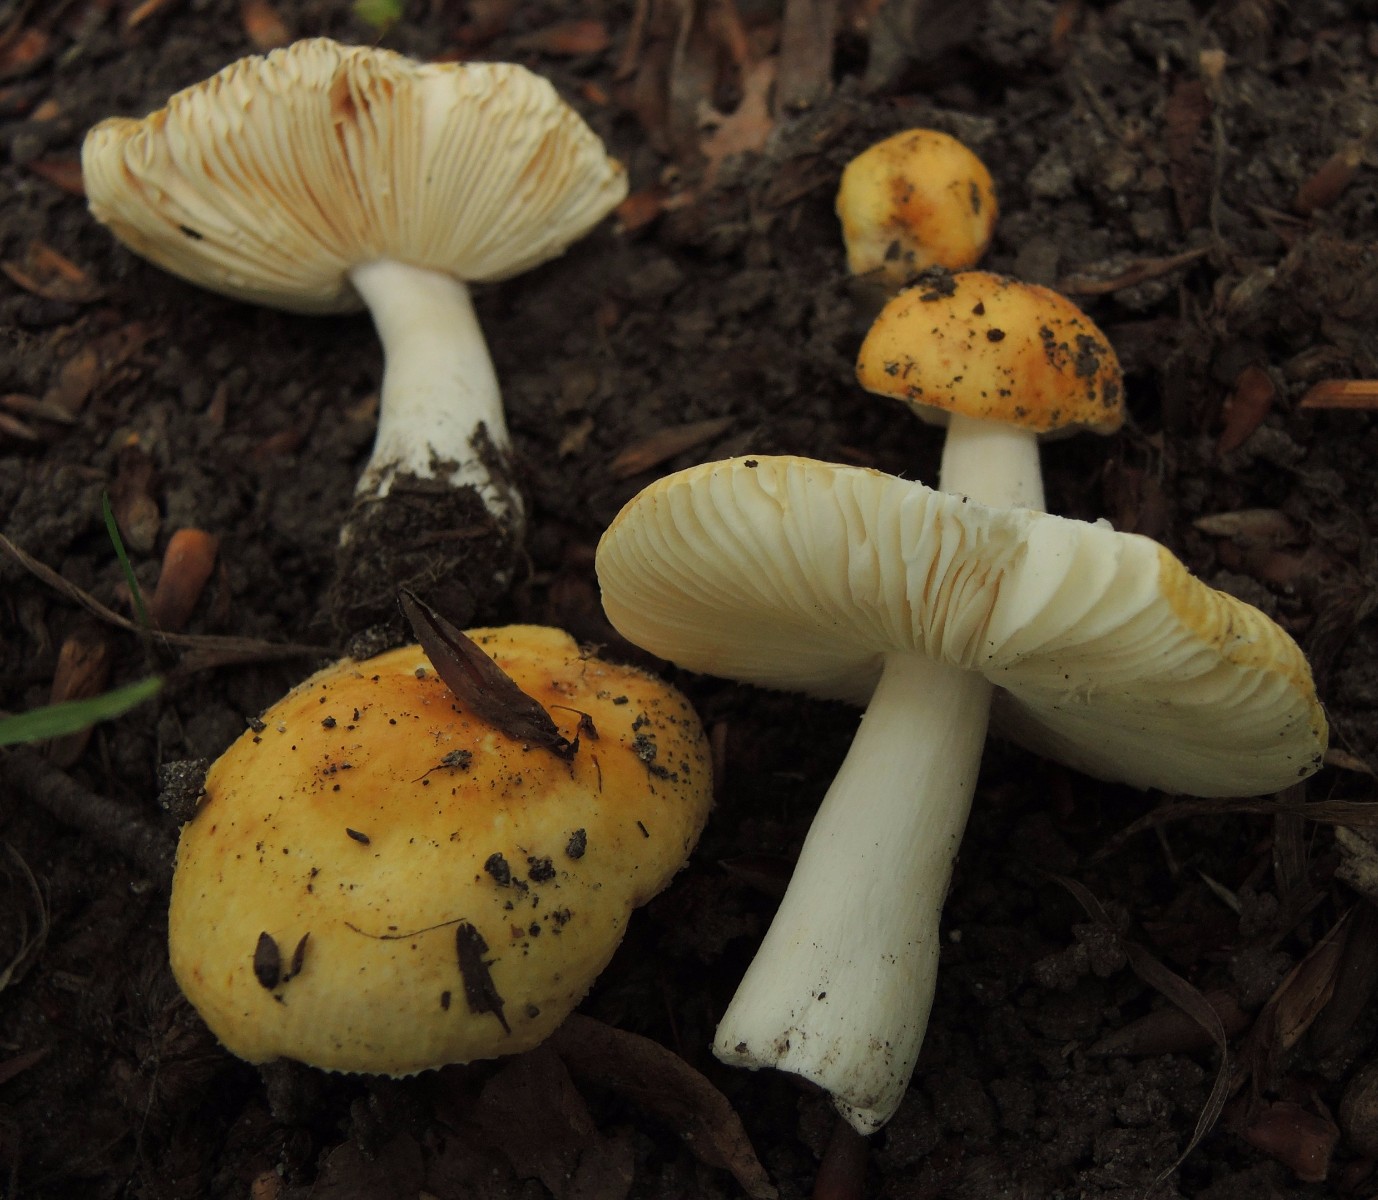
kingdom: Fungi
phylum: Basidiomycota
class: Agaricomycetes
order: Russulales
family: Russulaceae
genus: Russula
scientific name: Russula solaris
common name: sol-skørhat
